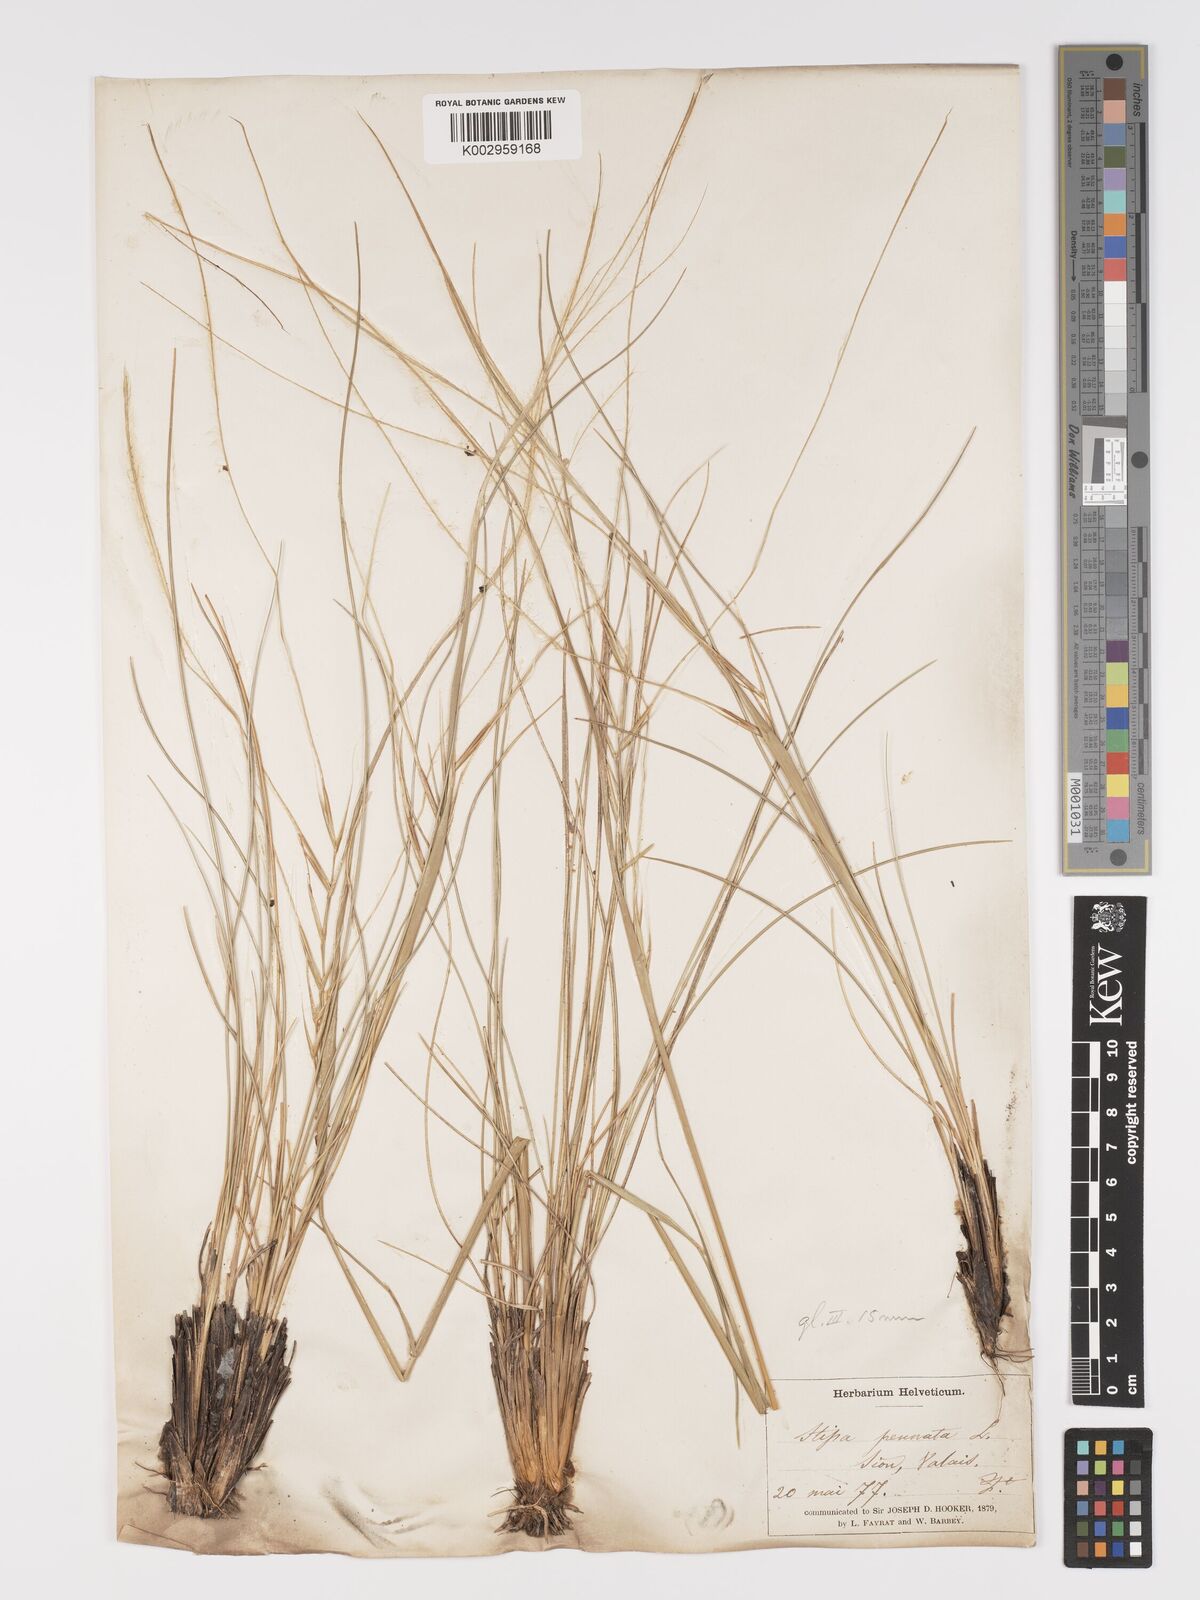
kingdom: Plantae
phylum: Tracheophyta
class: Liliopsida
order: Poales
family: Poaceae
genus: Stipa
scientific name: Stipa pennata
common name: European feather grass
